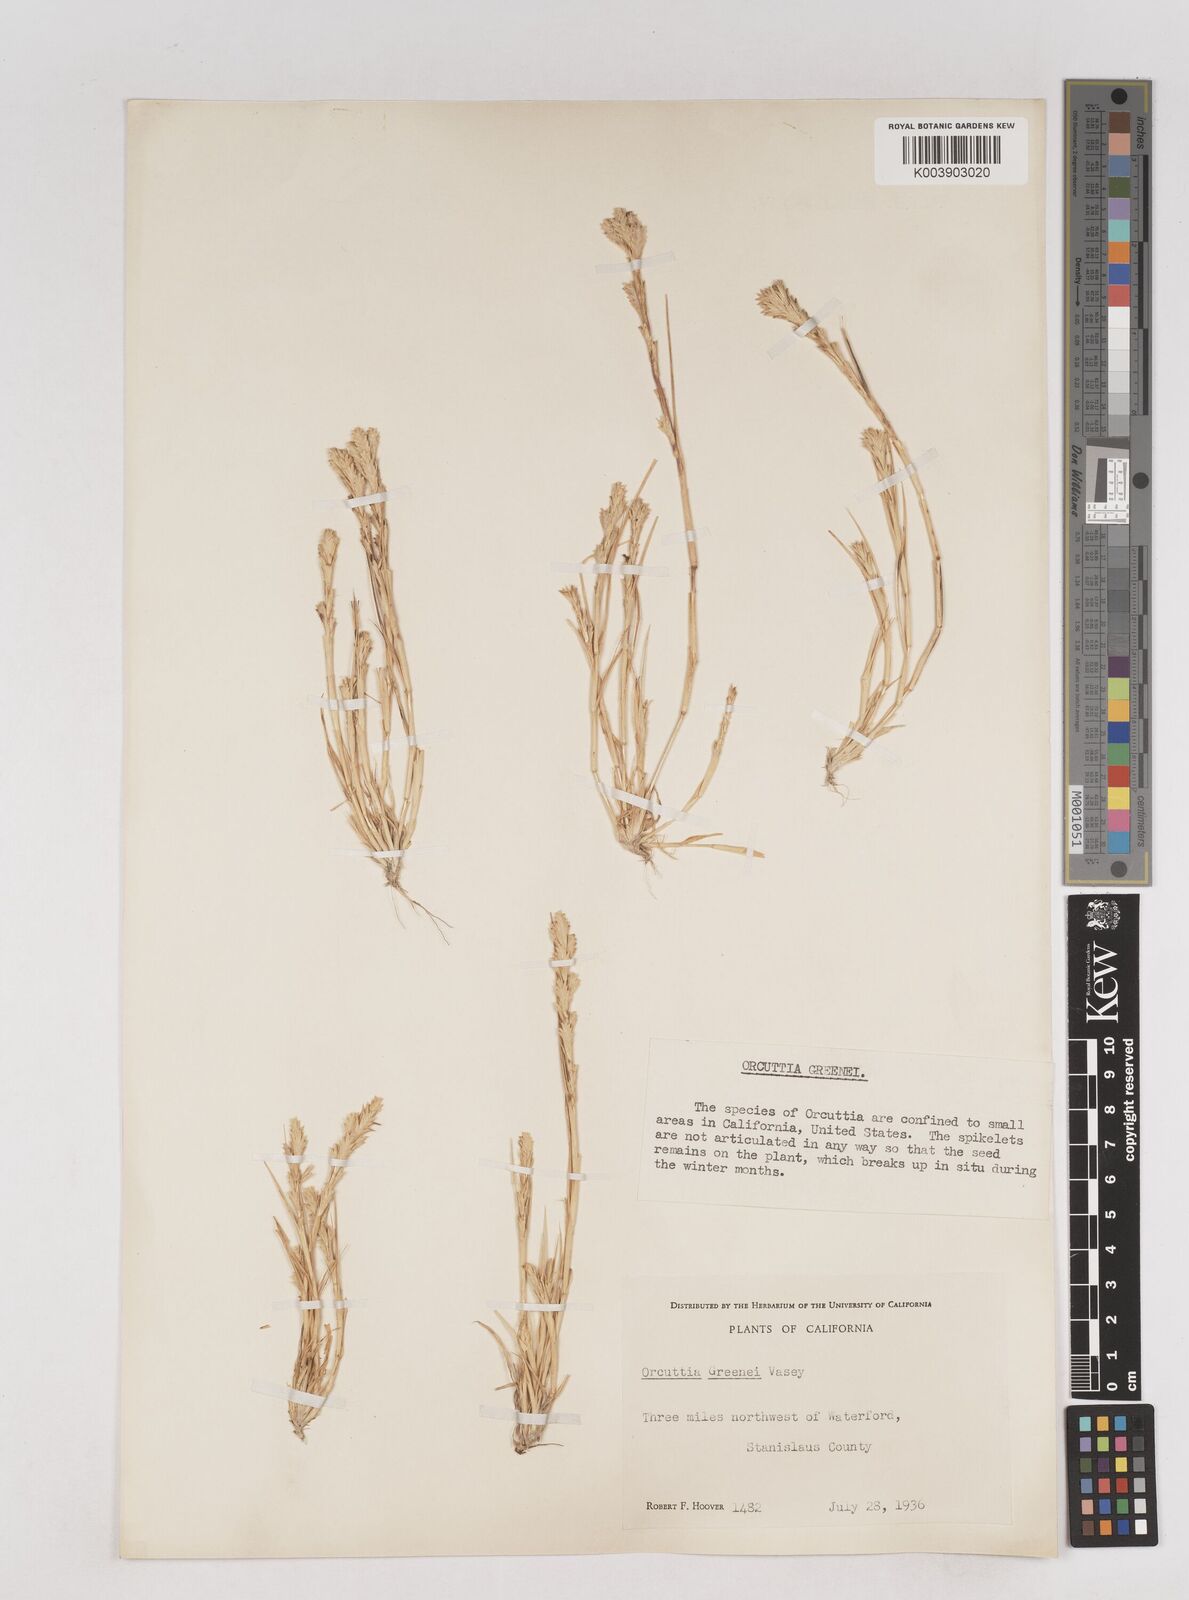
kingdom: Plantae
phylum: Tracheophyta
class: Liliopsida
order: Poales
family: Poaceae
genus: Tuctoria
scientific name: Tuctoria greenei
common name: Awnless spiral grass
